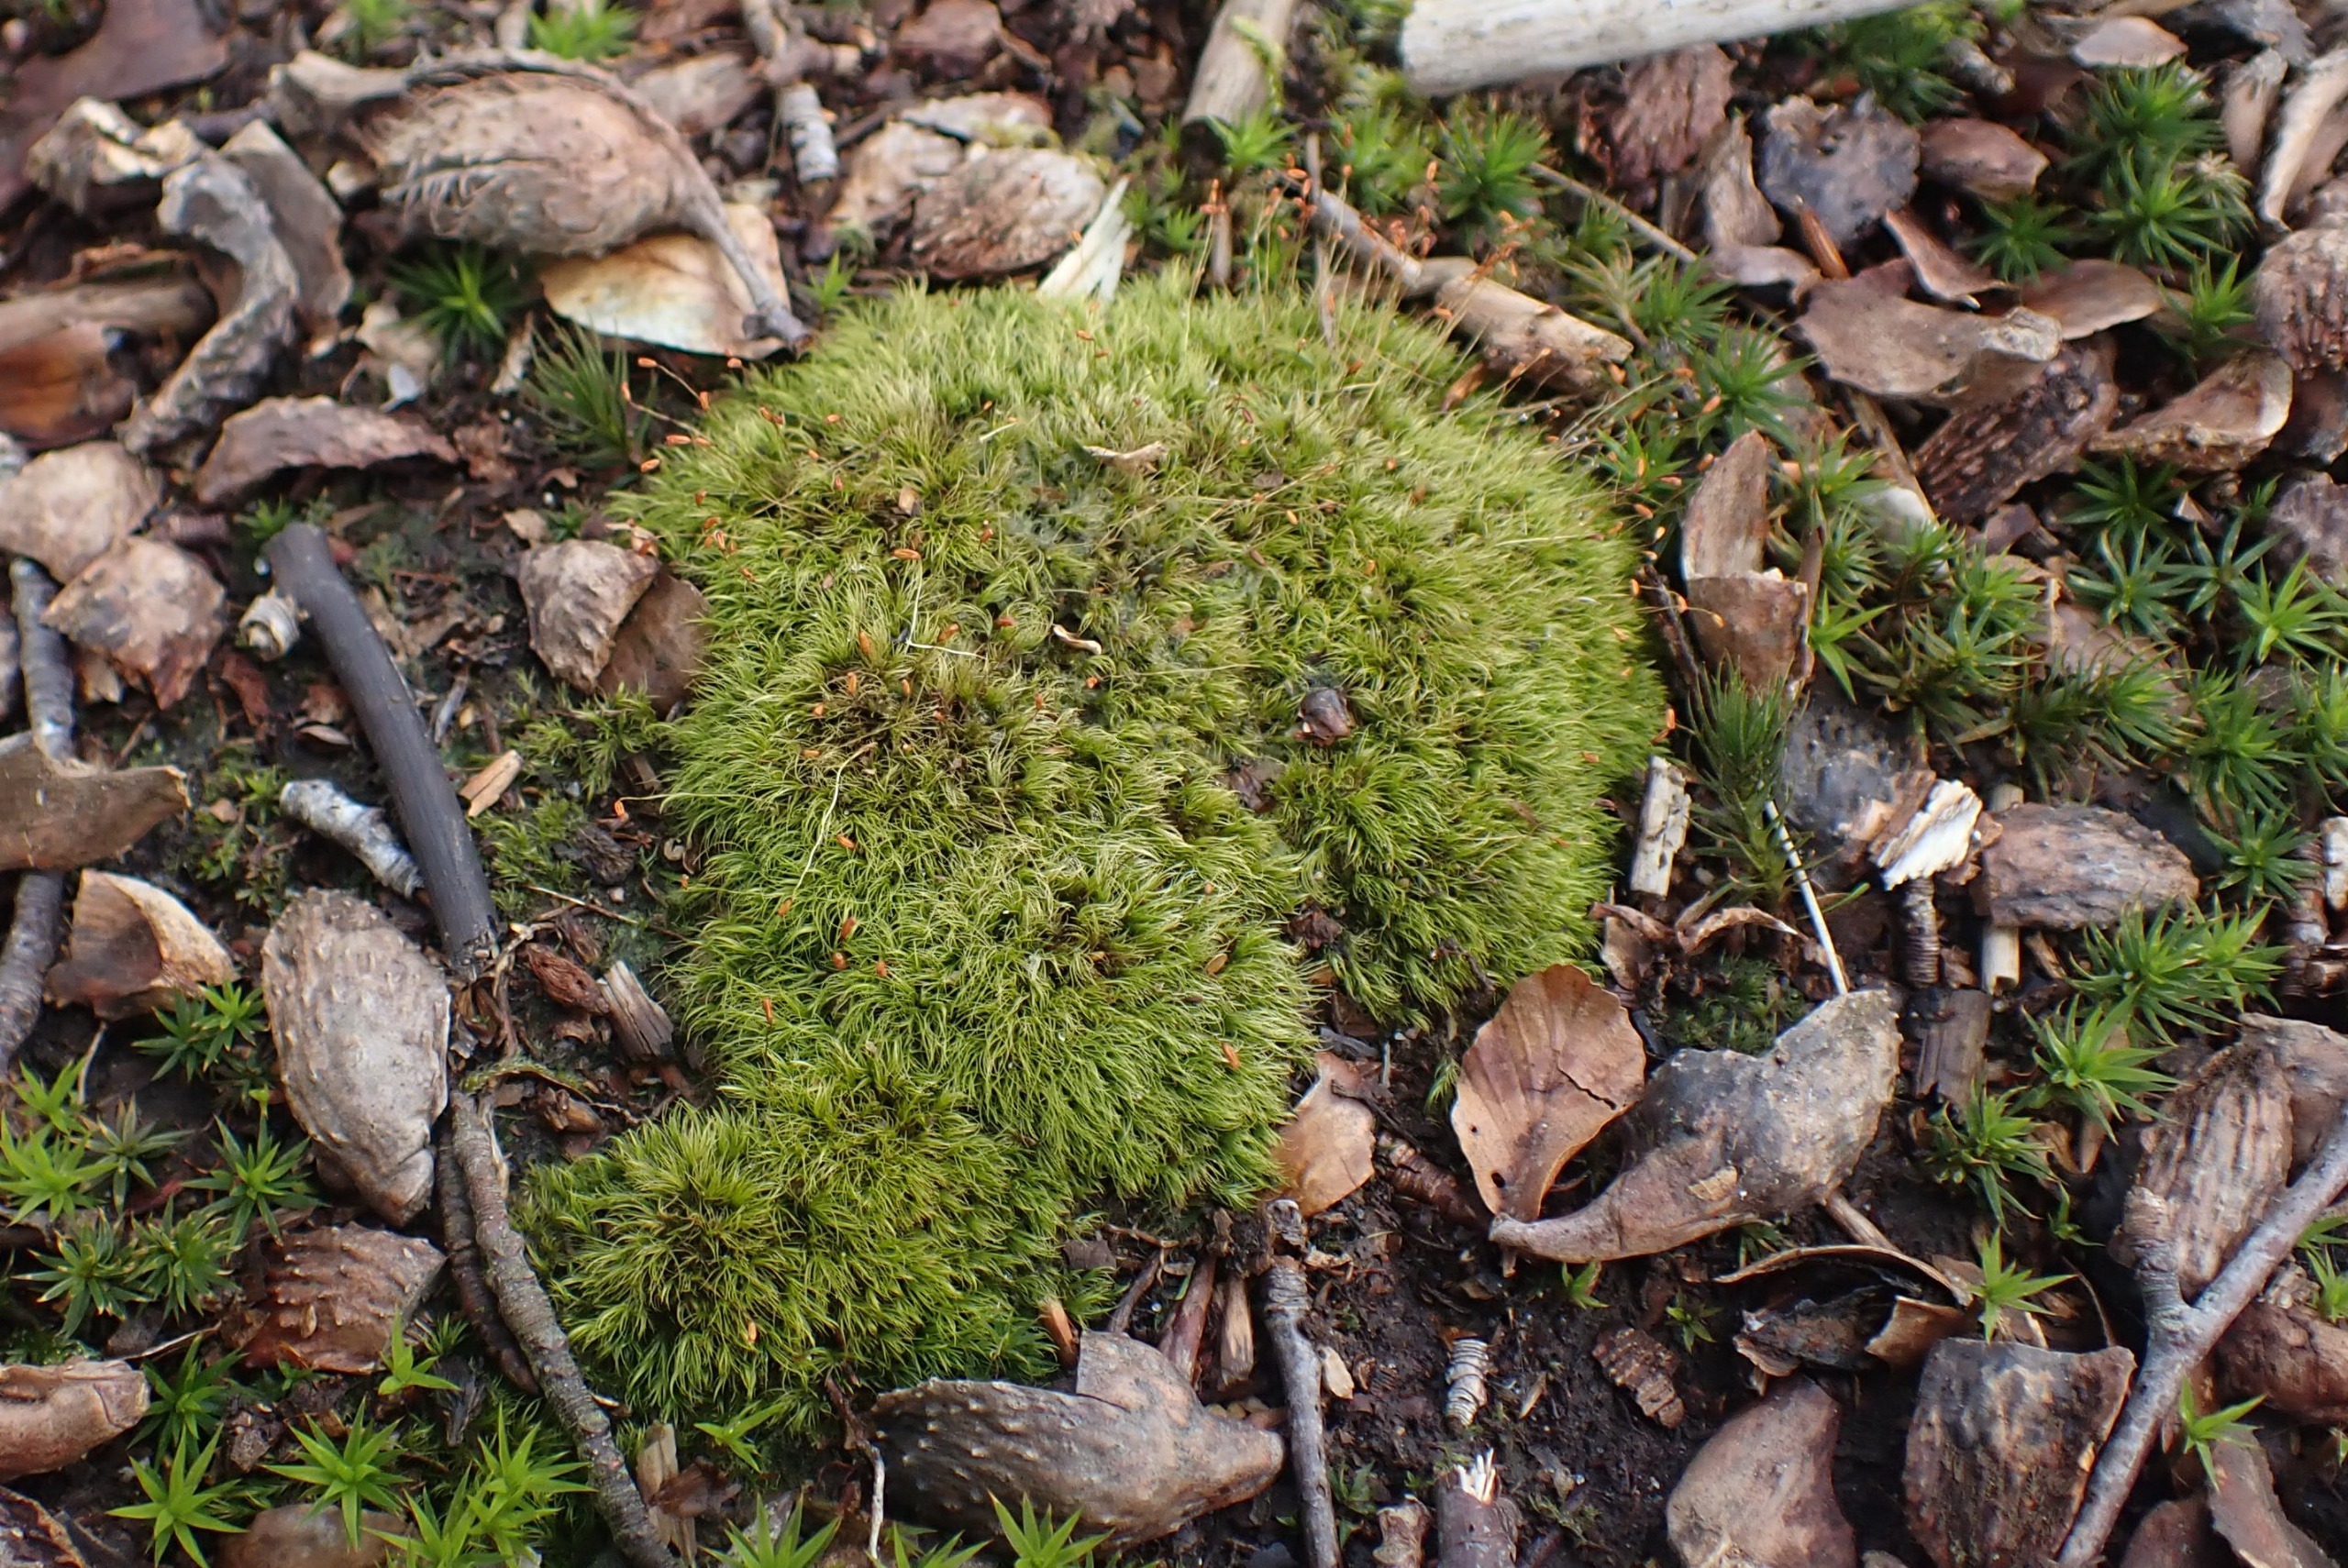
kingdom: Plantae
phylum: Bryophyta
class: Bryopsida
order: Dicranales
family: Dicranellaceae
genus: Dicranella
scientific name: Dicranella heteromalla
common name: Almindelig fløjlsmos
